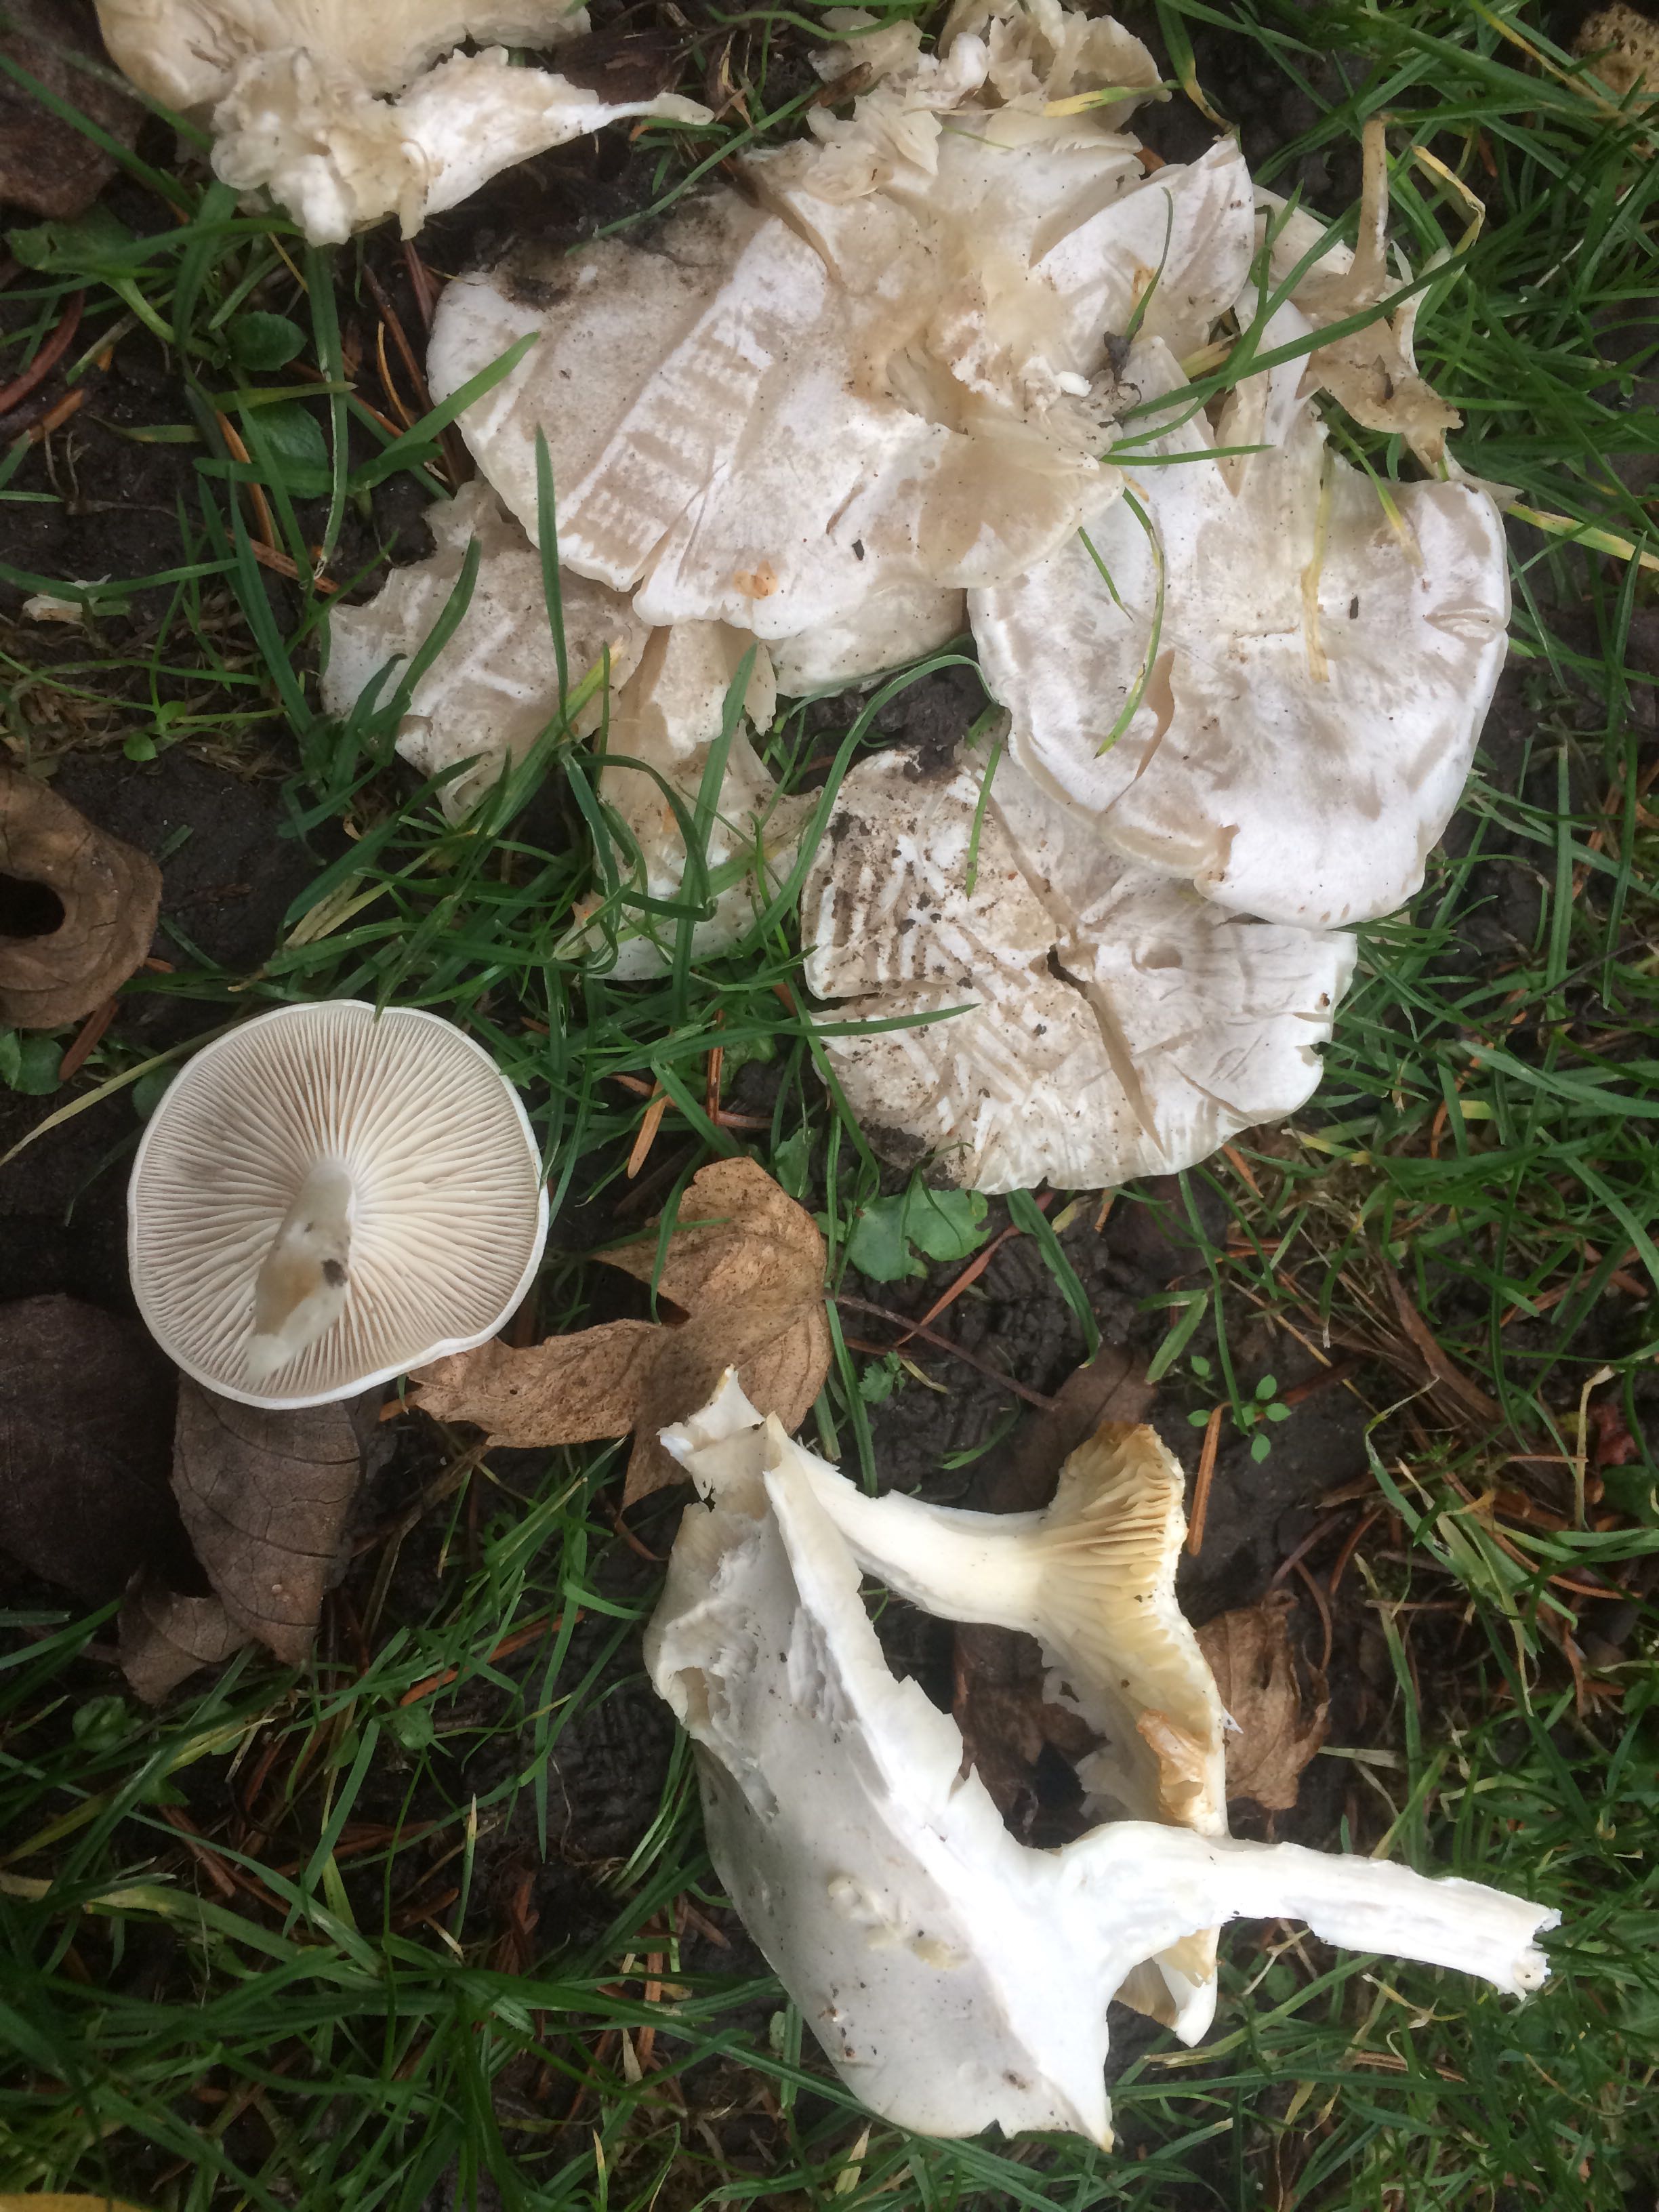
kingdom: Fungi
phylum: Basidiomycota
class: Agaricomycetes
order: Agaricales
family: Tricholomataceae
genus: Leucocybe
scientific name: Leucocybe connata
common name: knippe-tragthat
